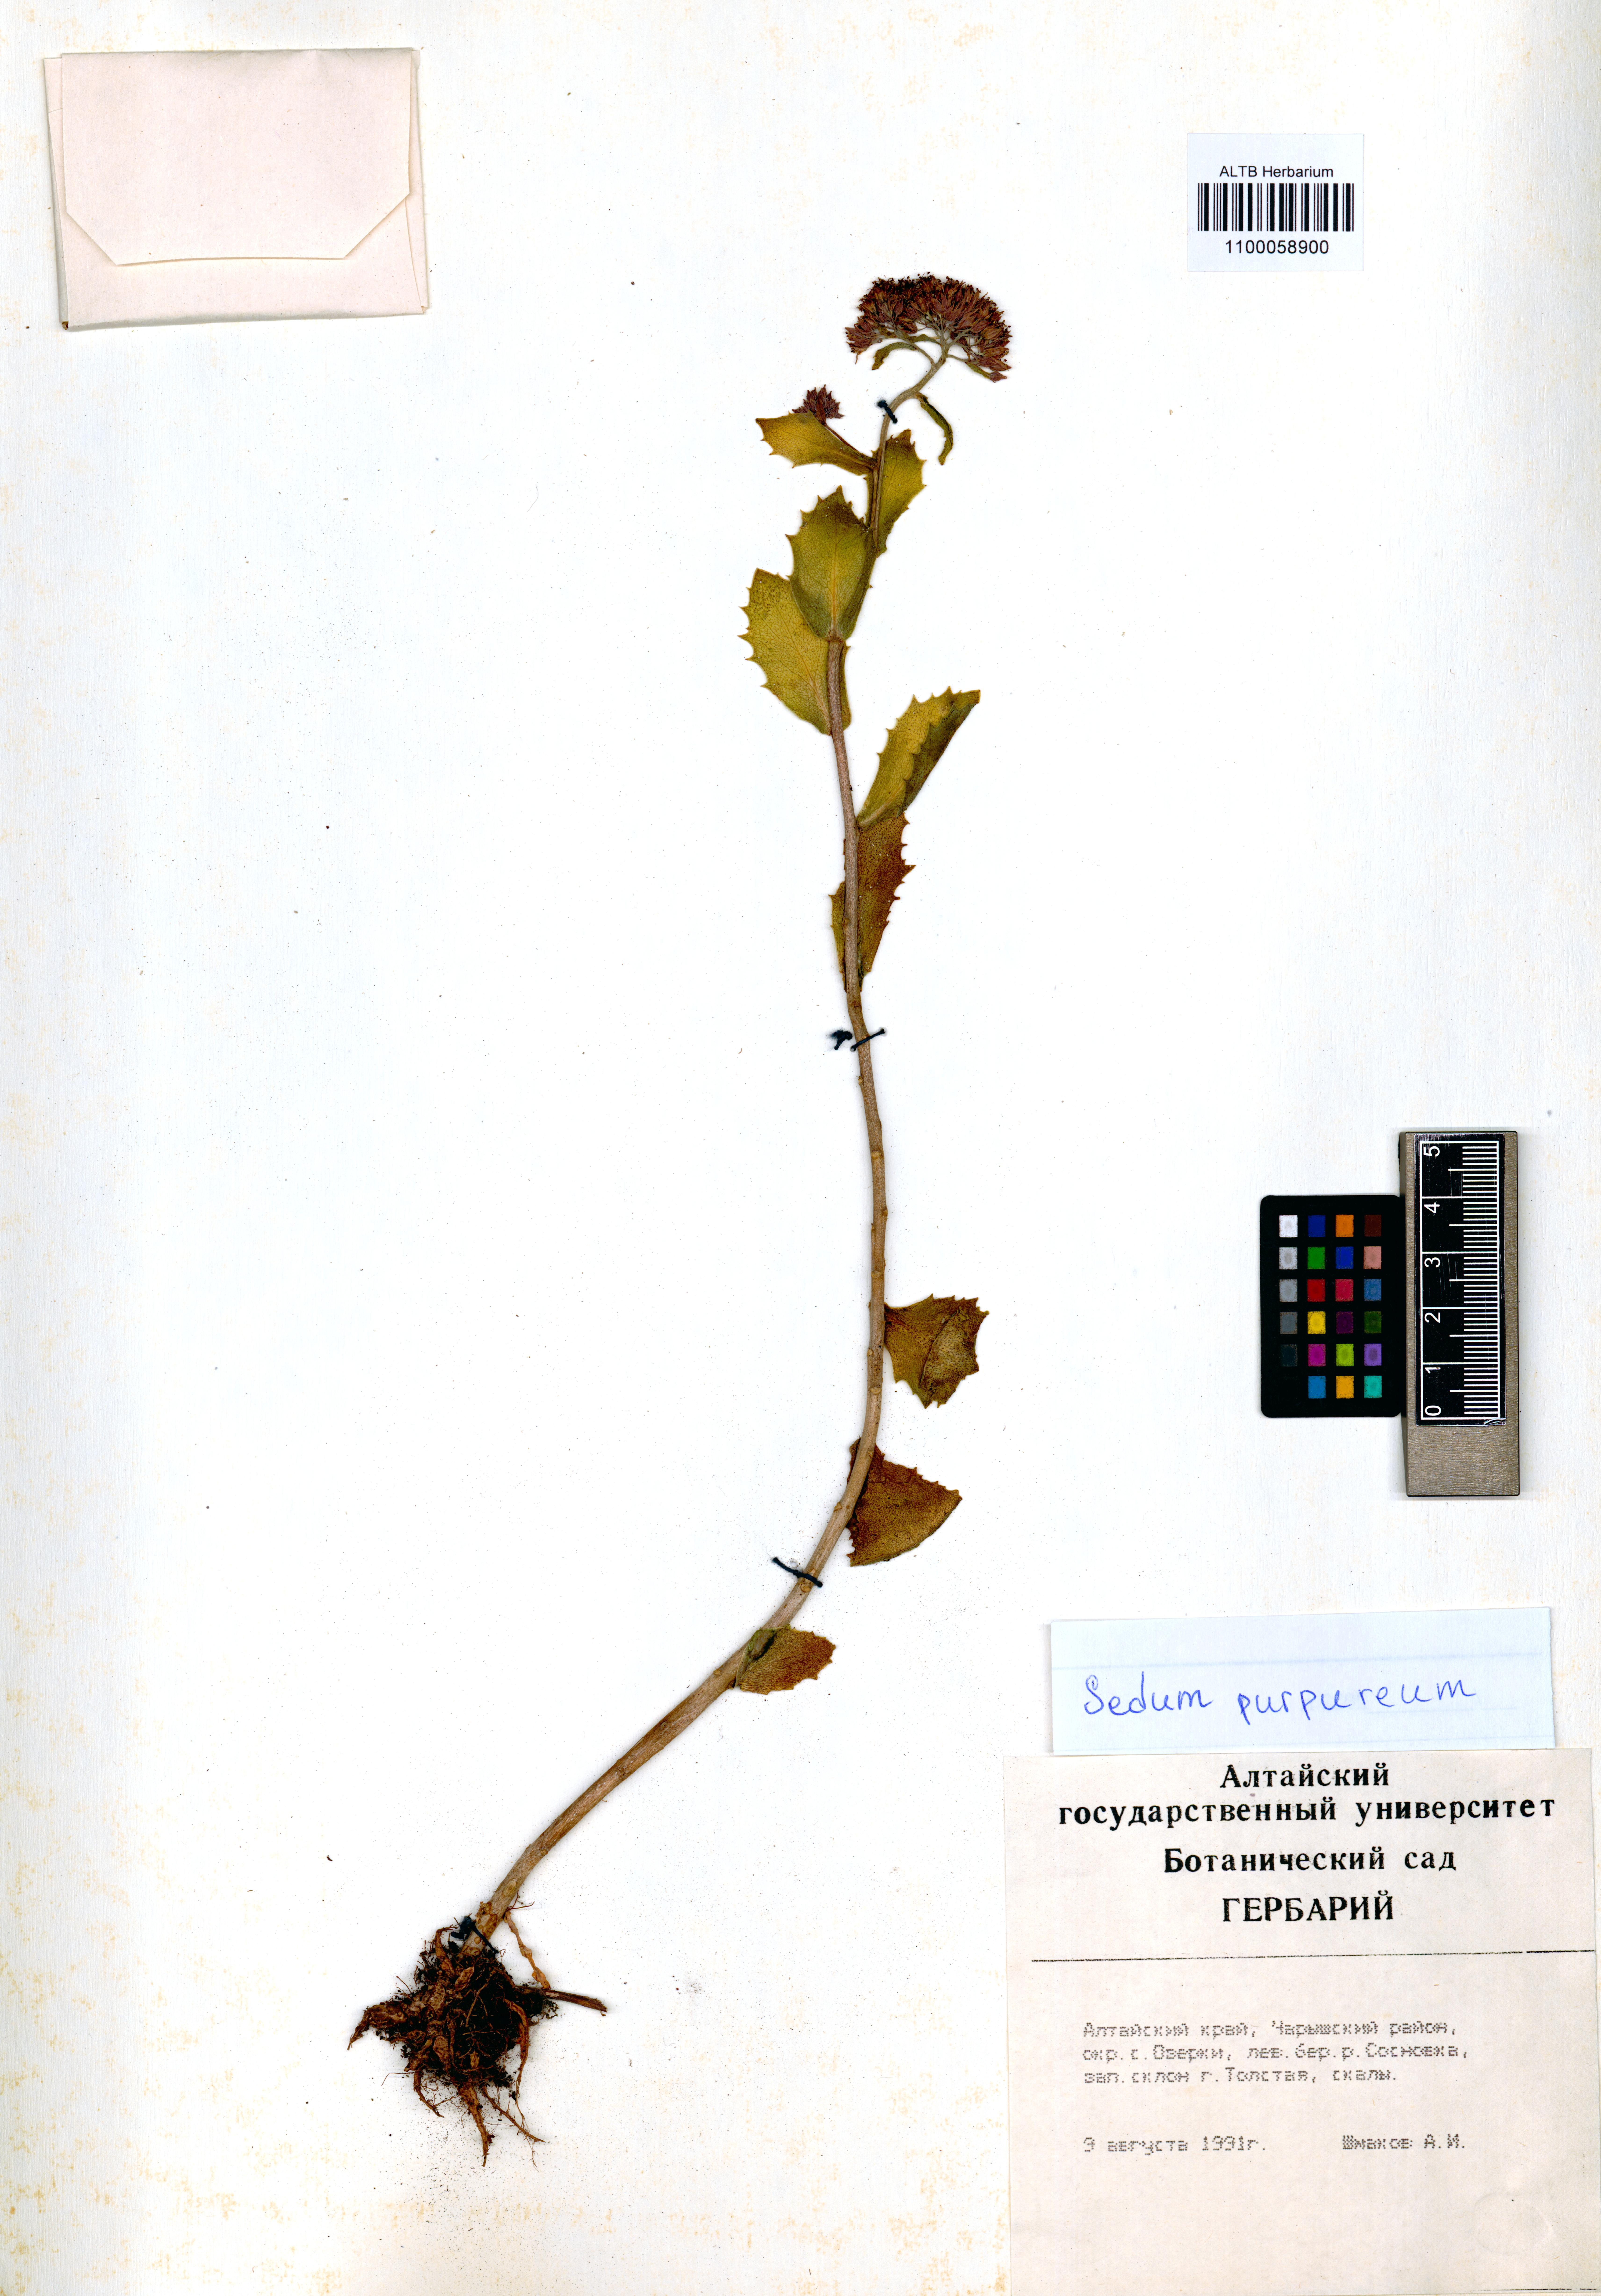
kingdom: Plantae
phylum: Tracheophyta
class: Magnoliopsida
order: Saxifragales
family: Crassulaceae
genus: Hylotelephium
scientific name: Hylotelephium telephium
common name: Live-forever
